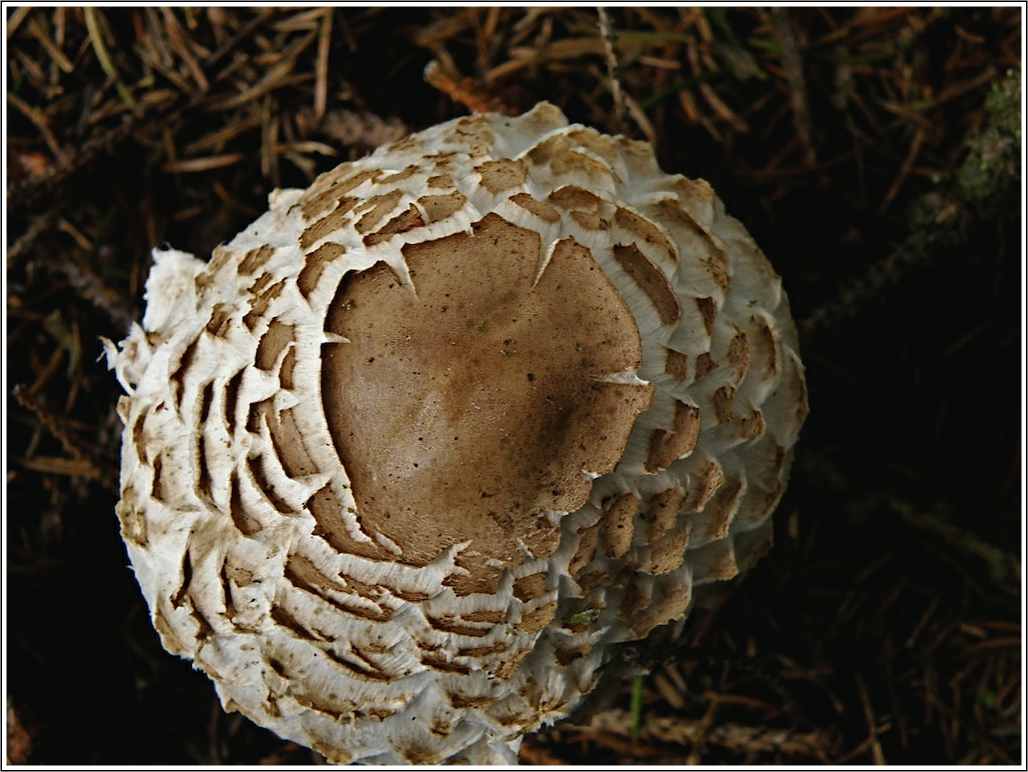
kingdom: Fungi
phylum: Basidiomycota
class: Agaricomycetes
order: Agaricales
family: Agaricaceae
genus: Chlorophyllum
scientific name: Chlorophyllum olivieri
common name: almindelig rabarberhat
